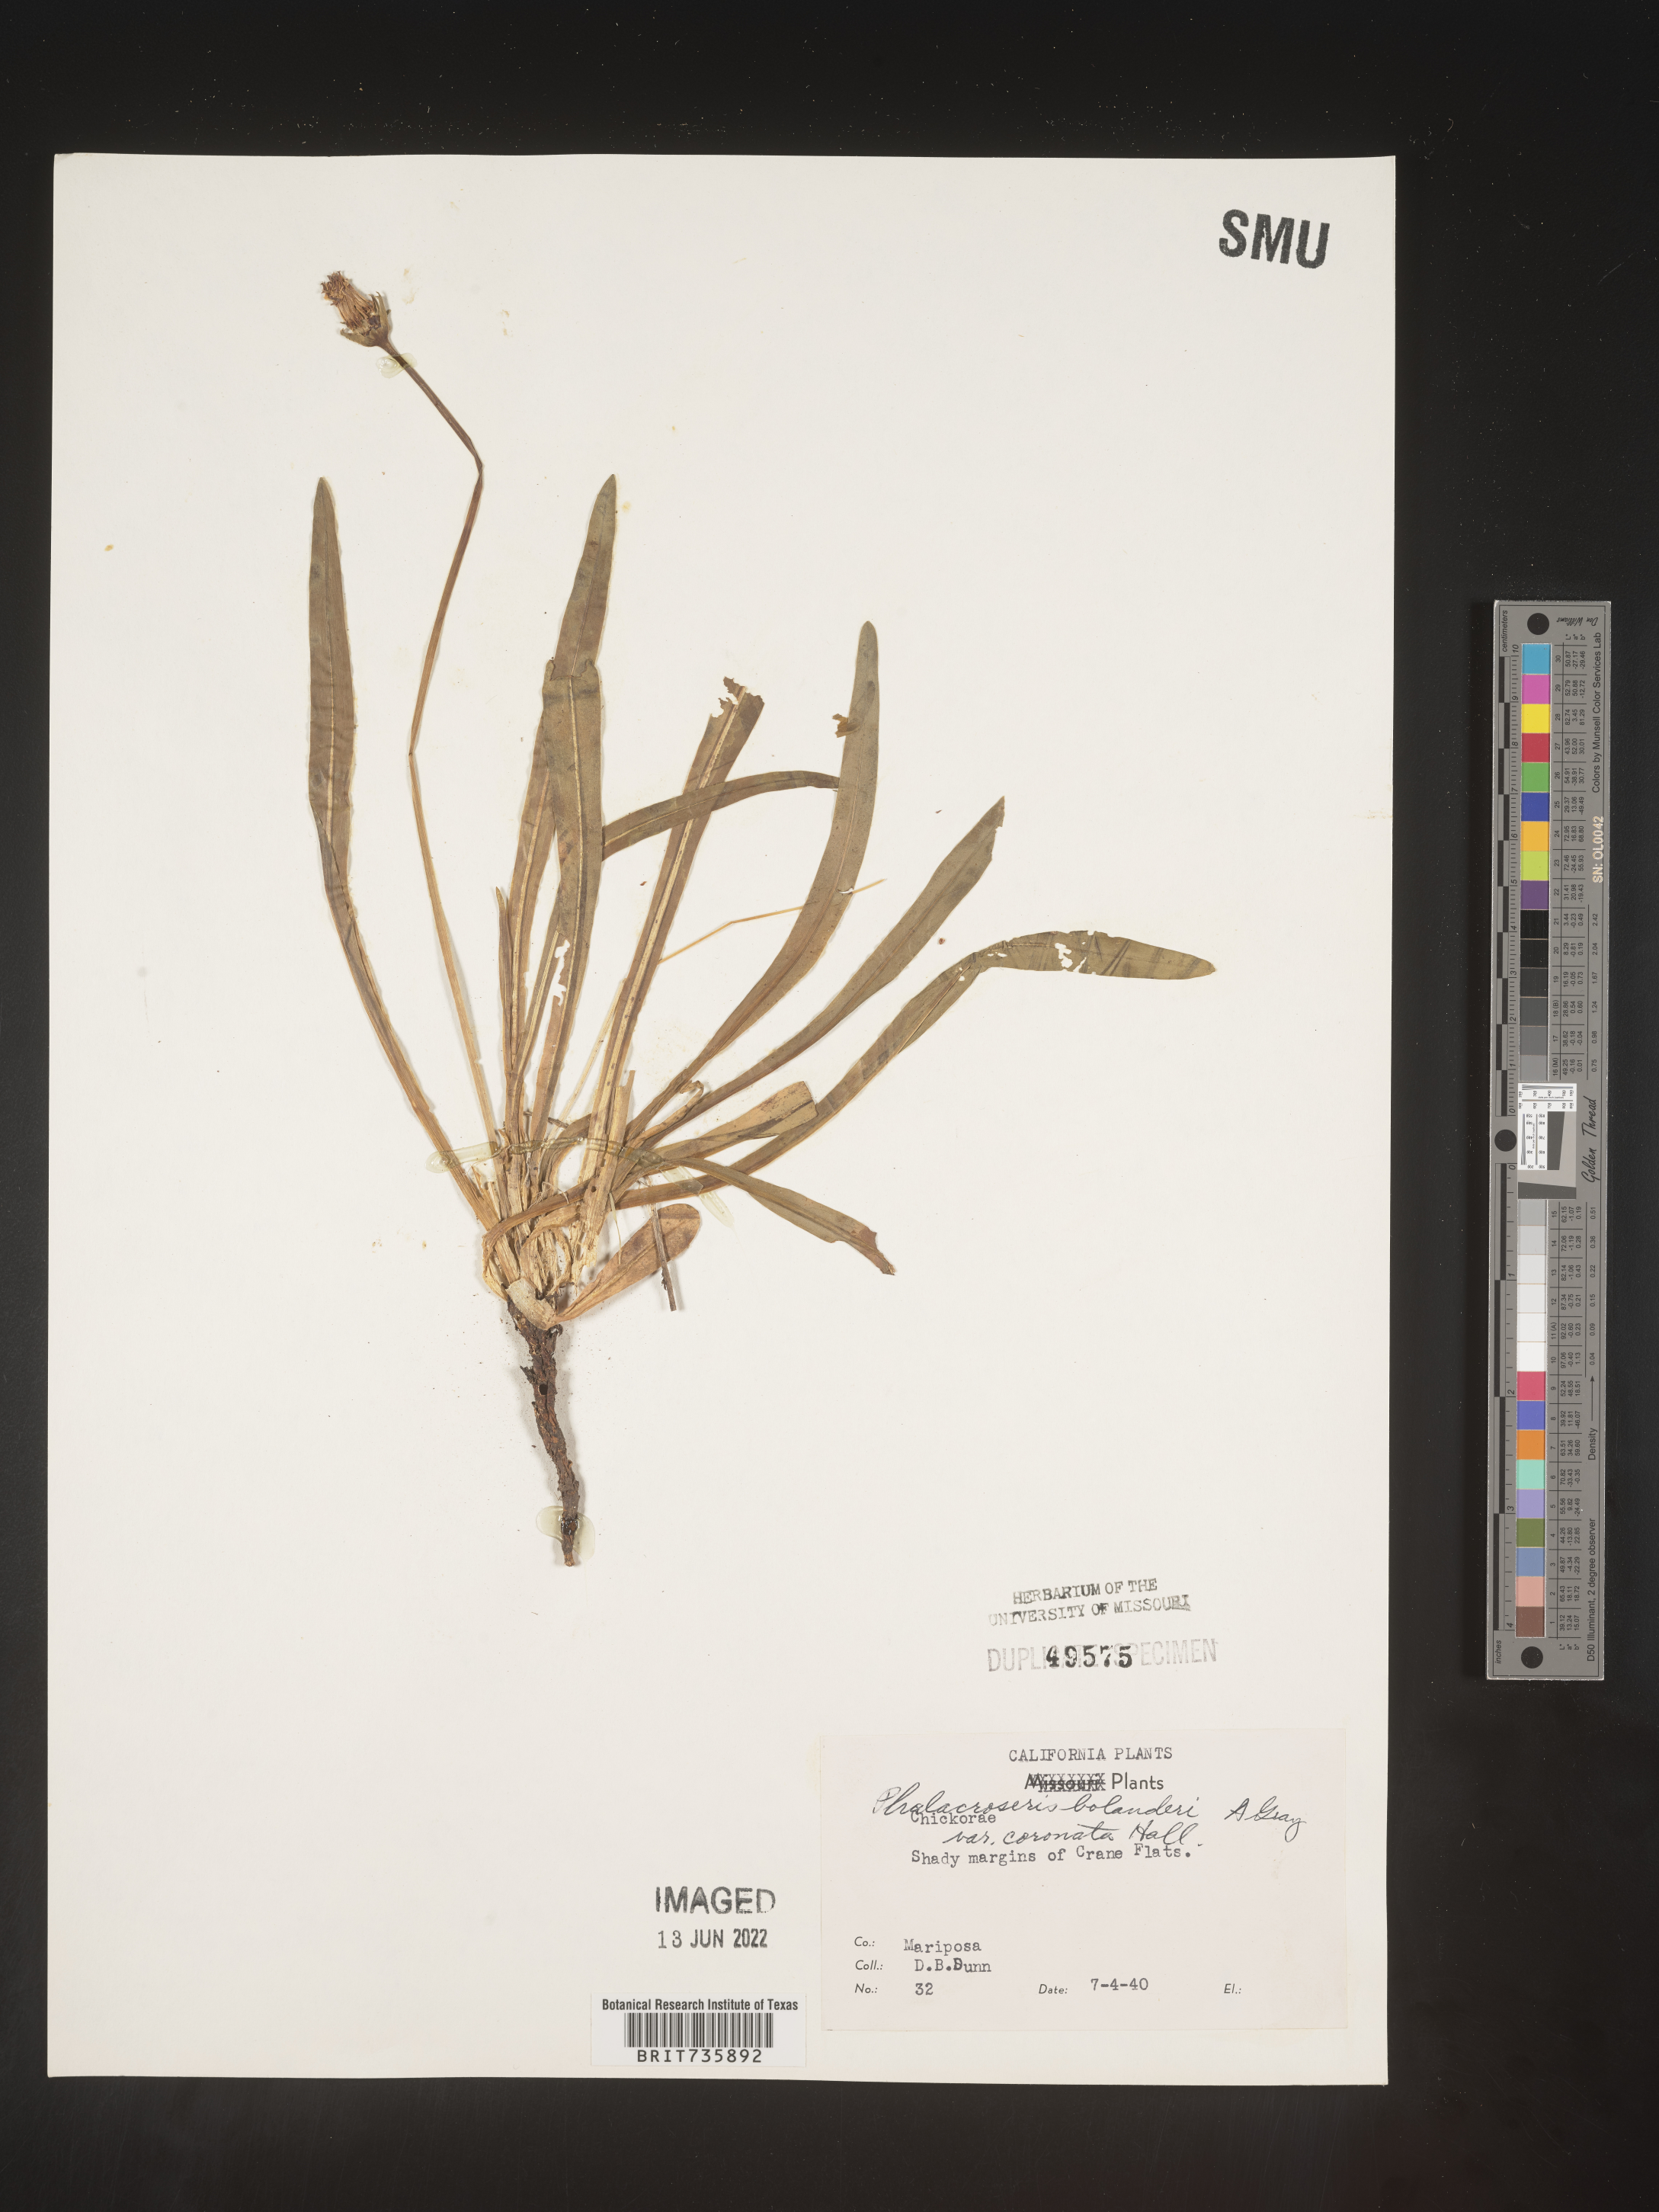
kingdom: Plantae
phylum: Tracheophyta
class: Magnoliopsida
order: Asterales
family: Asteraceae
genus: Phalacroseris
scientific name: Phalacroseris
